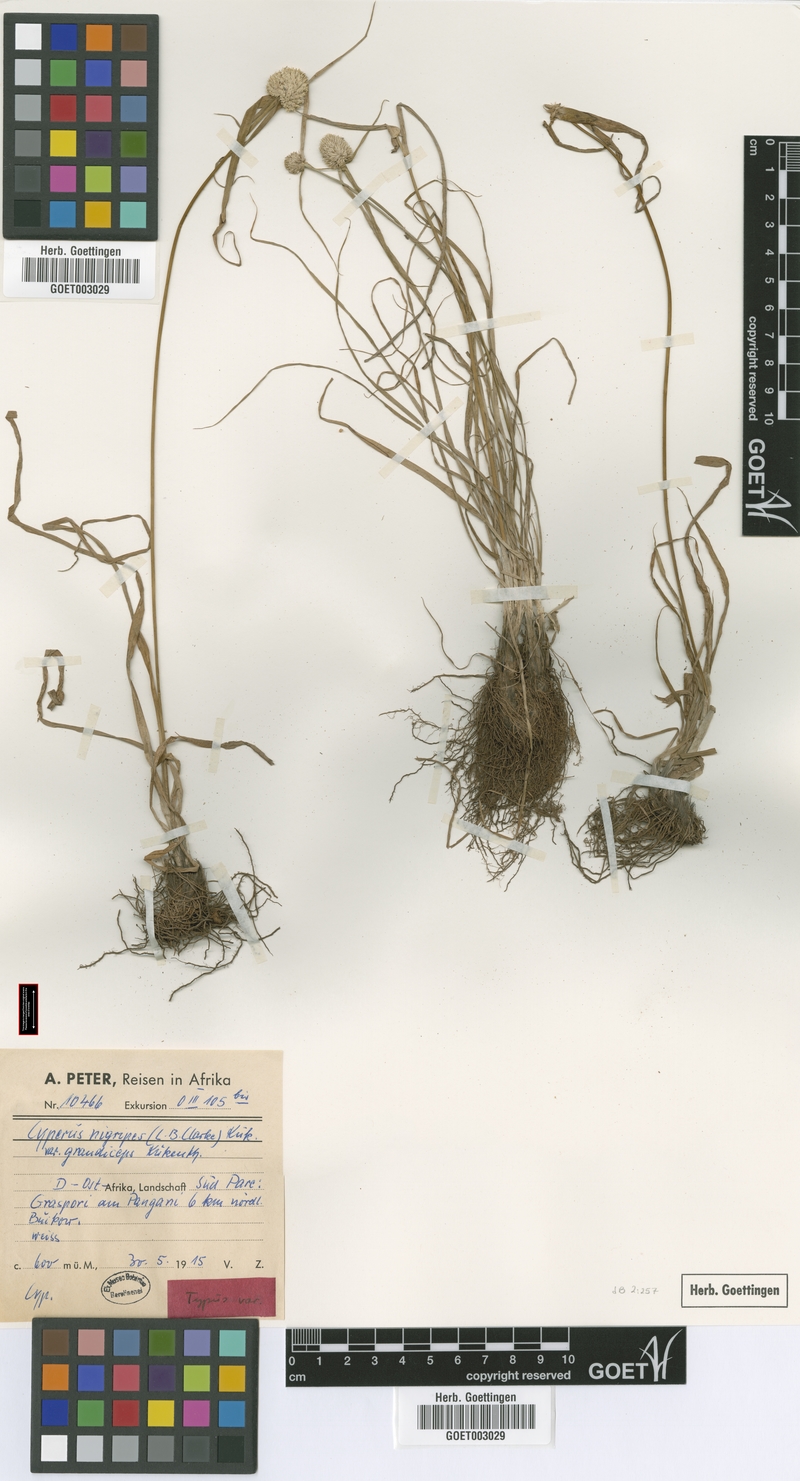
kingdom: Plantae
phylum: Tracheophyta
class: Liliopsida
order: Poales
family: Cyperaceae
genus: Cyperus
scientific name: Cyperus alatus
